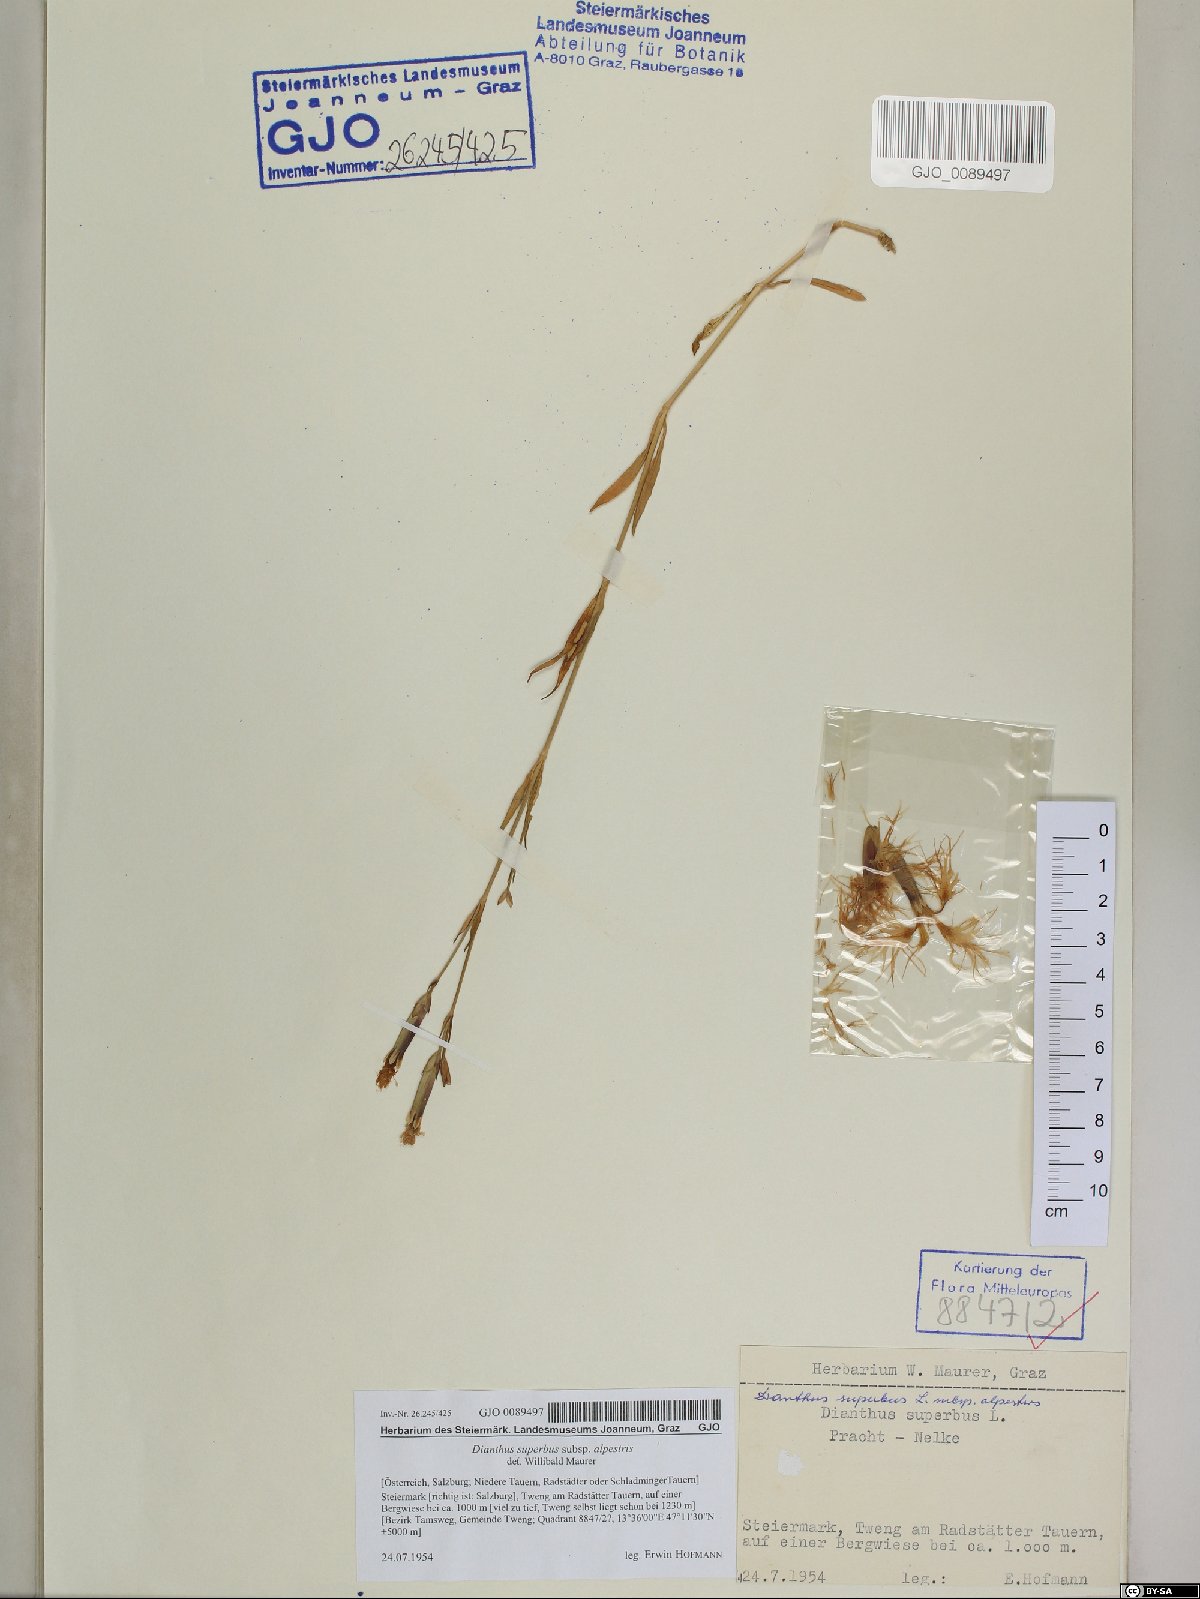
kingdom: Plantae
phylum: Tracheophyta
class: Magnoliopsida
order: Caryophyllales
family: Caryophyllaceae
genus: Dianthus
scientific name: Dianthus superbus
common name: Fringed pink
